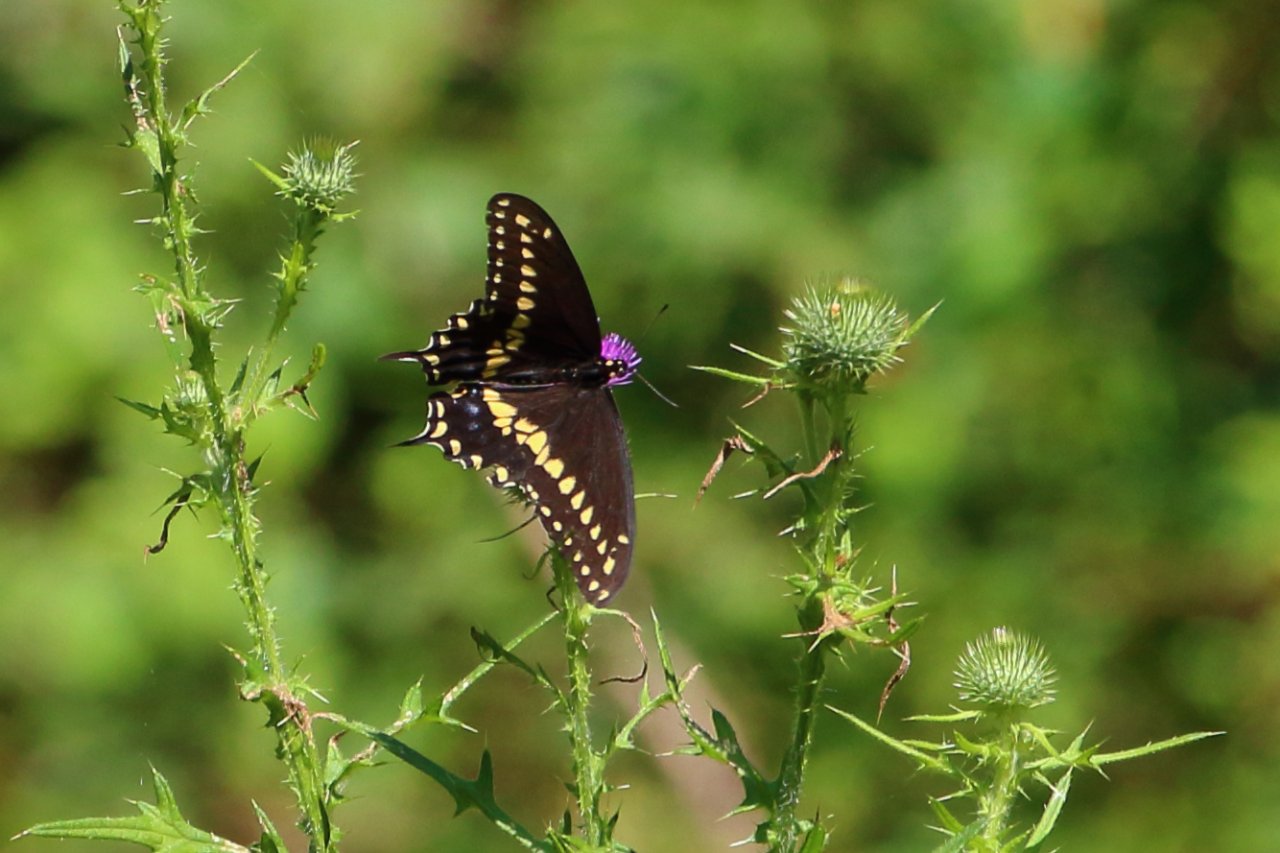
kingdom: Animalia
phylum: Arthropoda
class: Insecta
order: Lepidoptera
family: Papilionidae
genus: Papilio
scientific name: Papilio polyxenes
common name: Black Swallowtail
